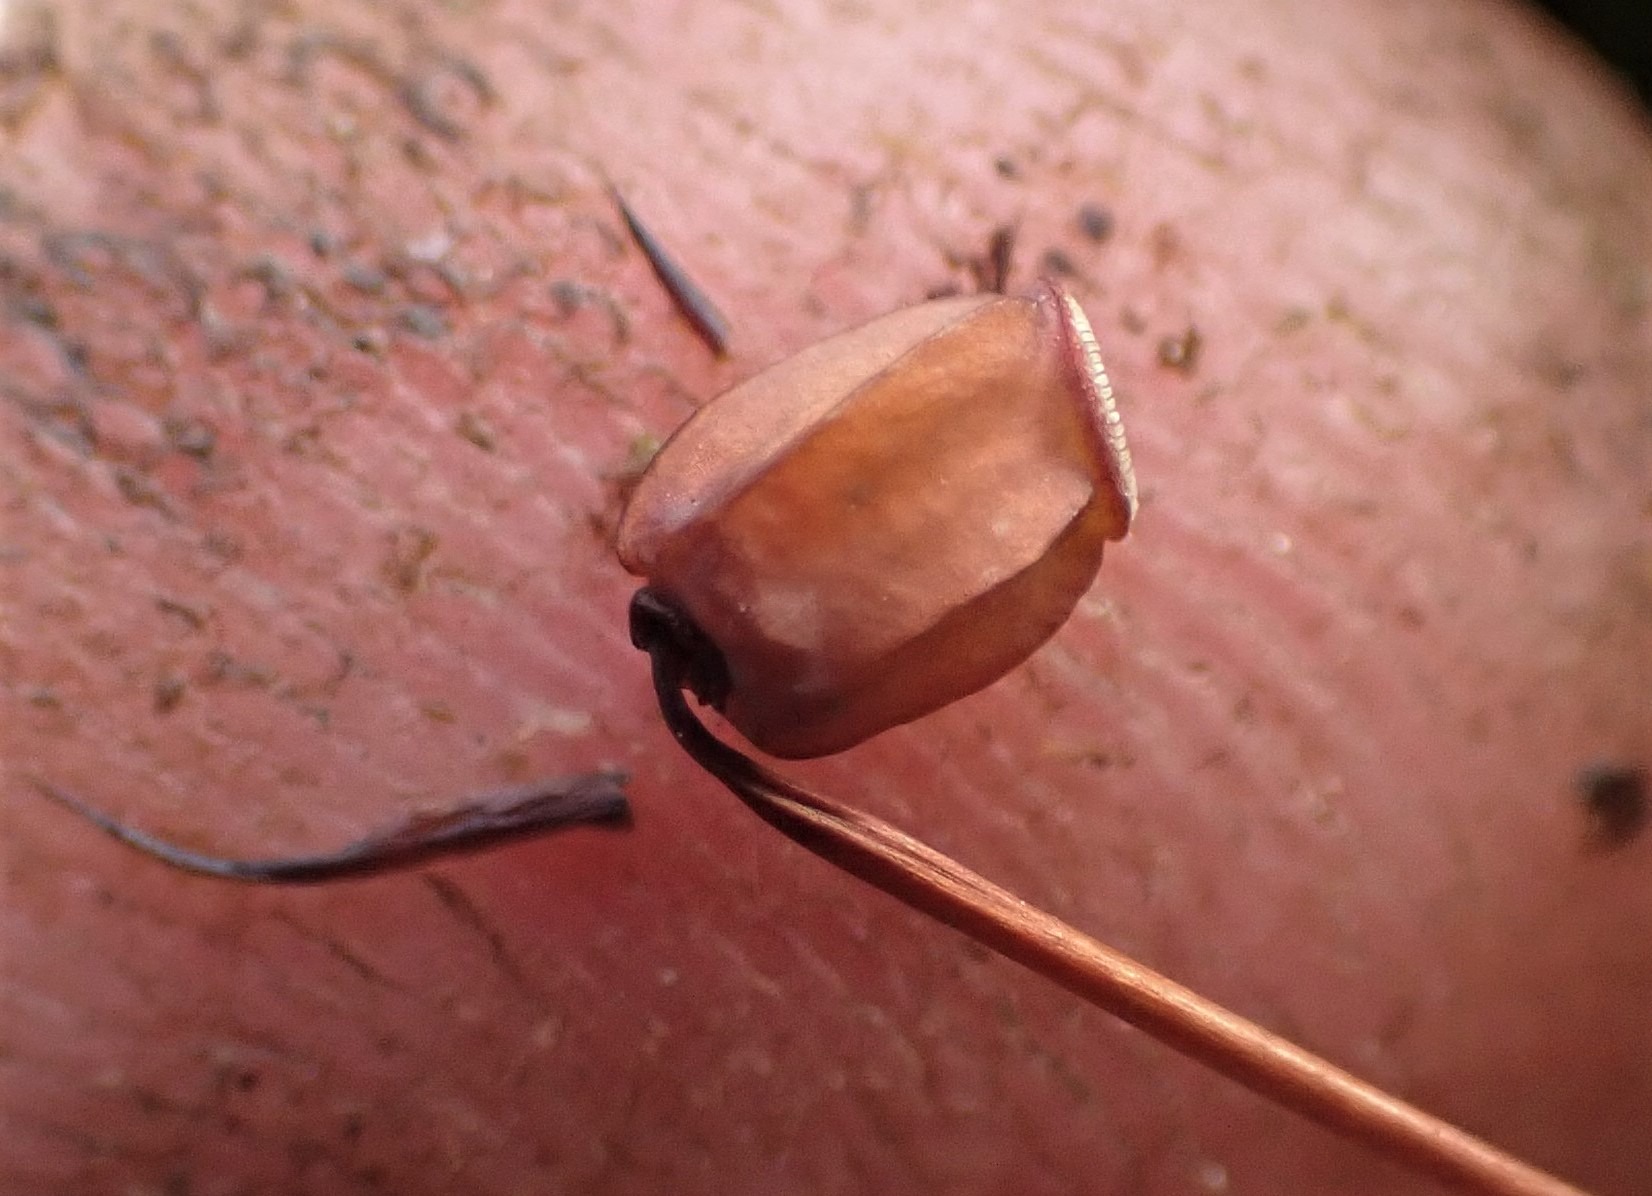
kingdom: Plantae
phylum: Bryophyta
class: Polytrichopsida
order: Polytrichales
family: Polytrichaceae
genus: Polytrichum
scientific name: Polytrichum commune
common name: Almindelig jomfruhår
